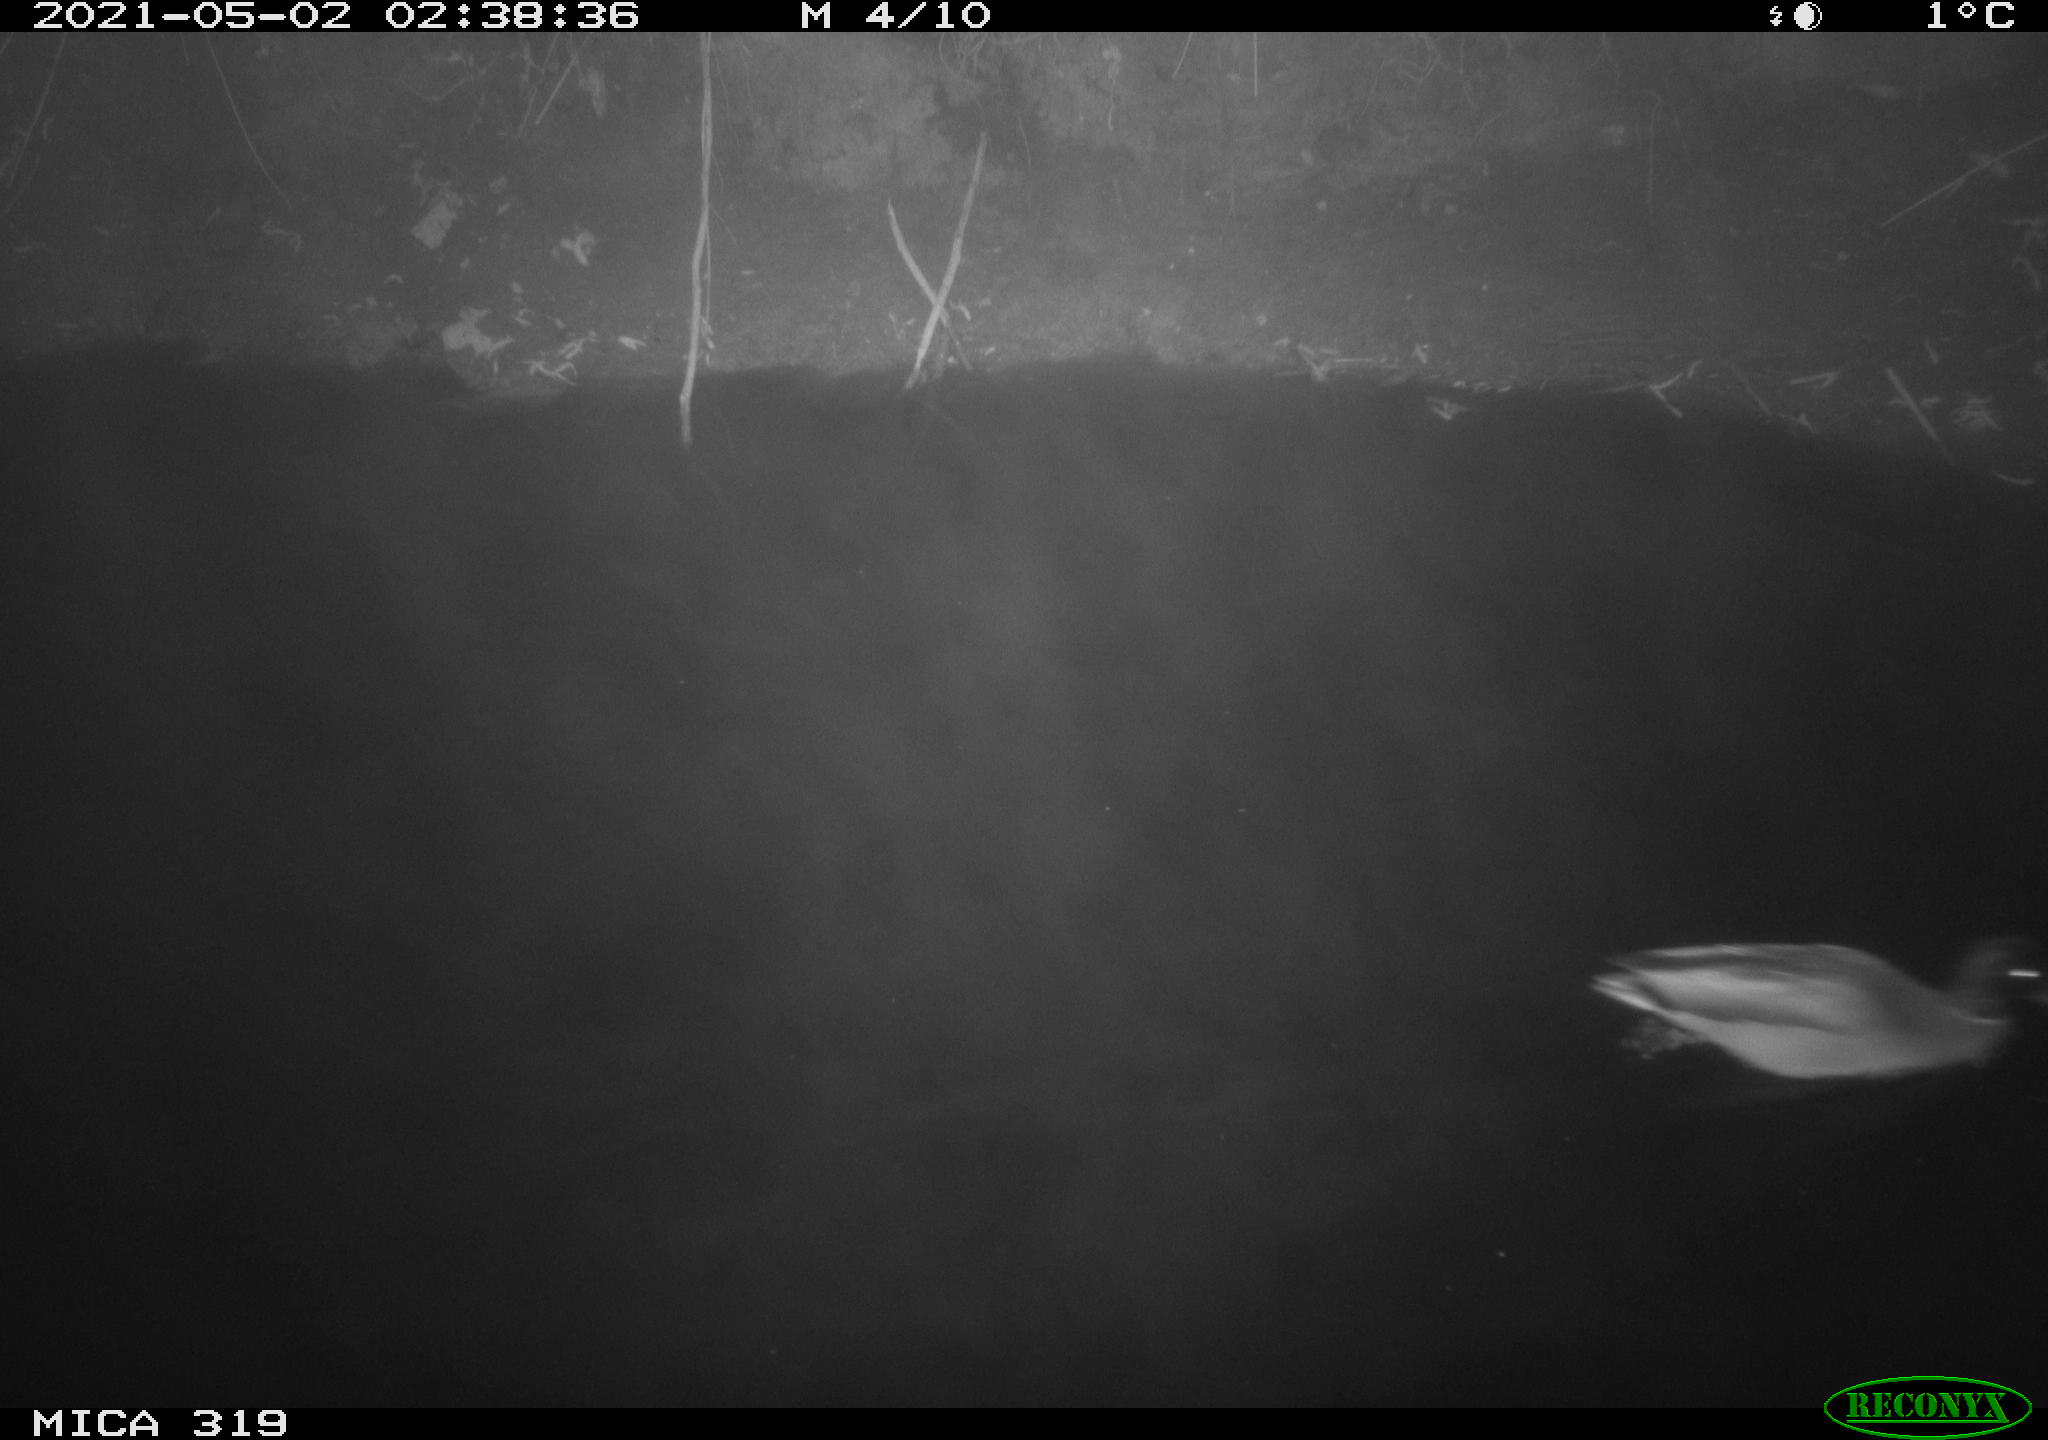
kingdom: Animalia
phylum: Chordata
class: Aves
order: Anseriformes
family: Anatidae
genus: Anas
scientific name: Anas platyrhynchos
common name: Mallard
